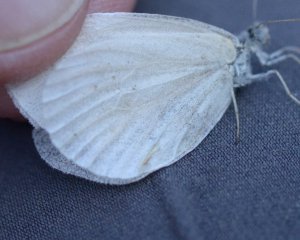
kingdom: Animalia
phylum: Arthropoda
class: Insecta
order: Lepidoptera
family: Pieridae
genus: Pieris
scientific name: Pieris virginiensis
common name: West Virginia White
